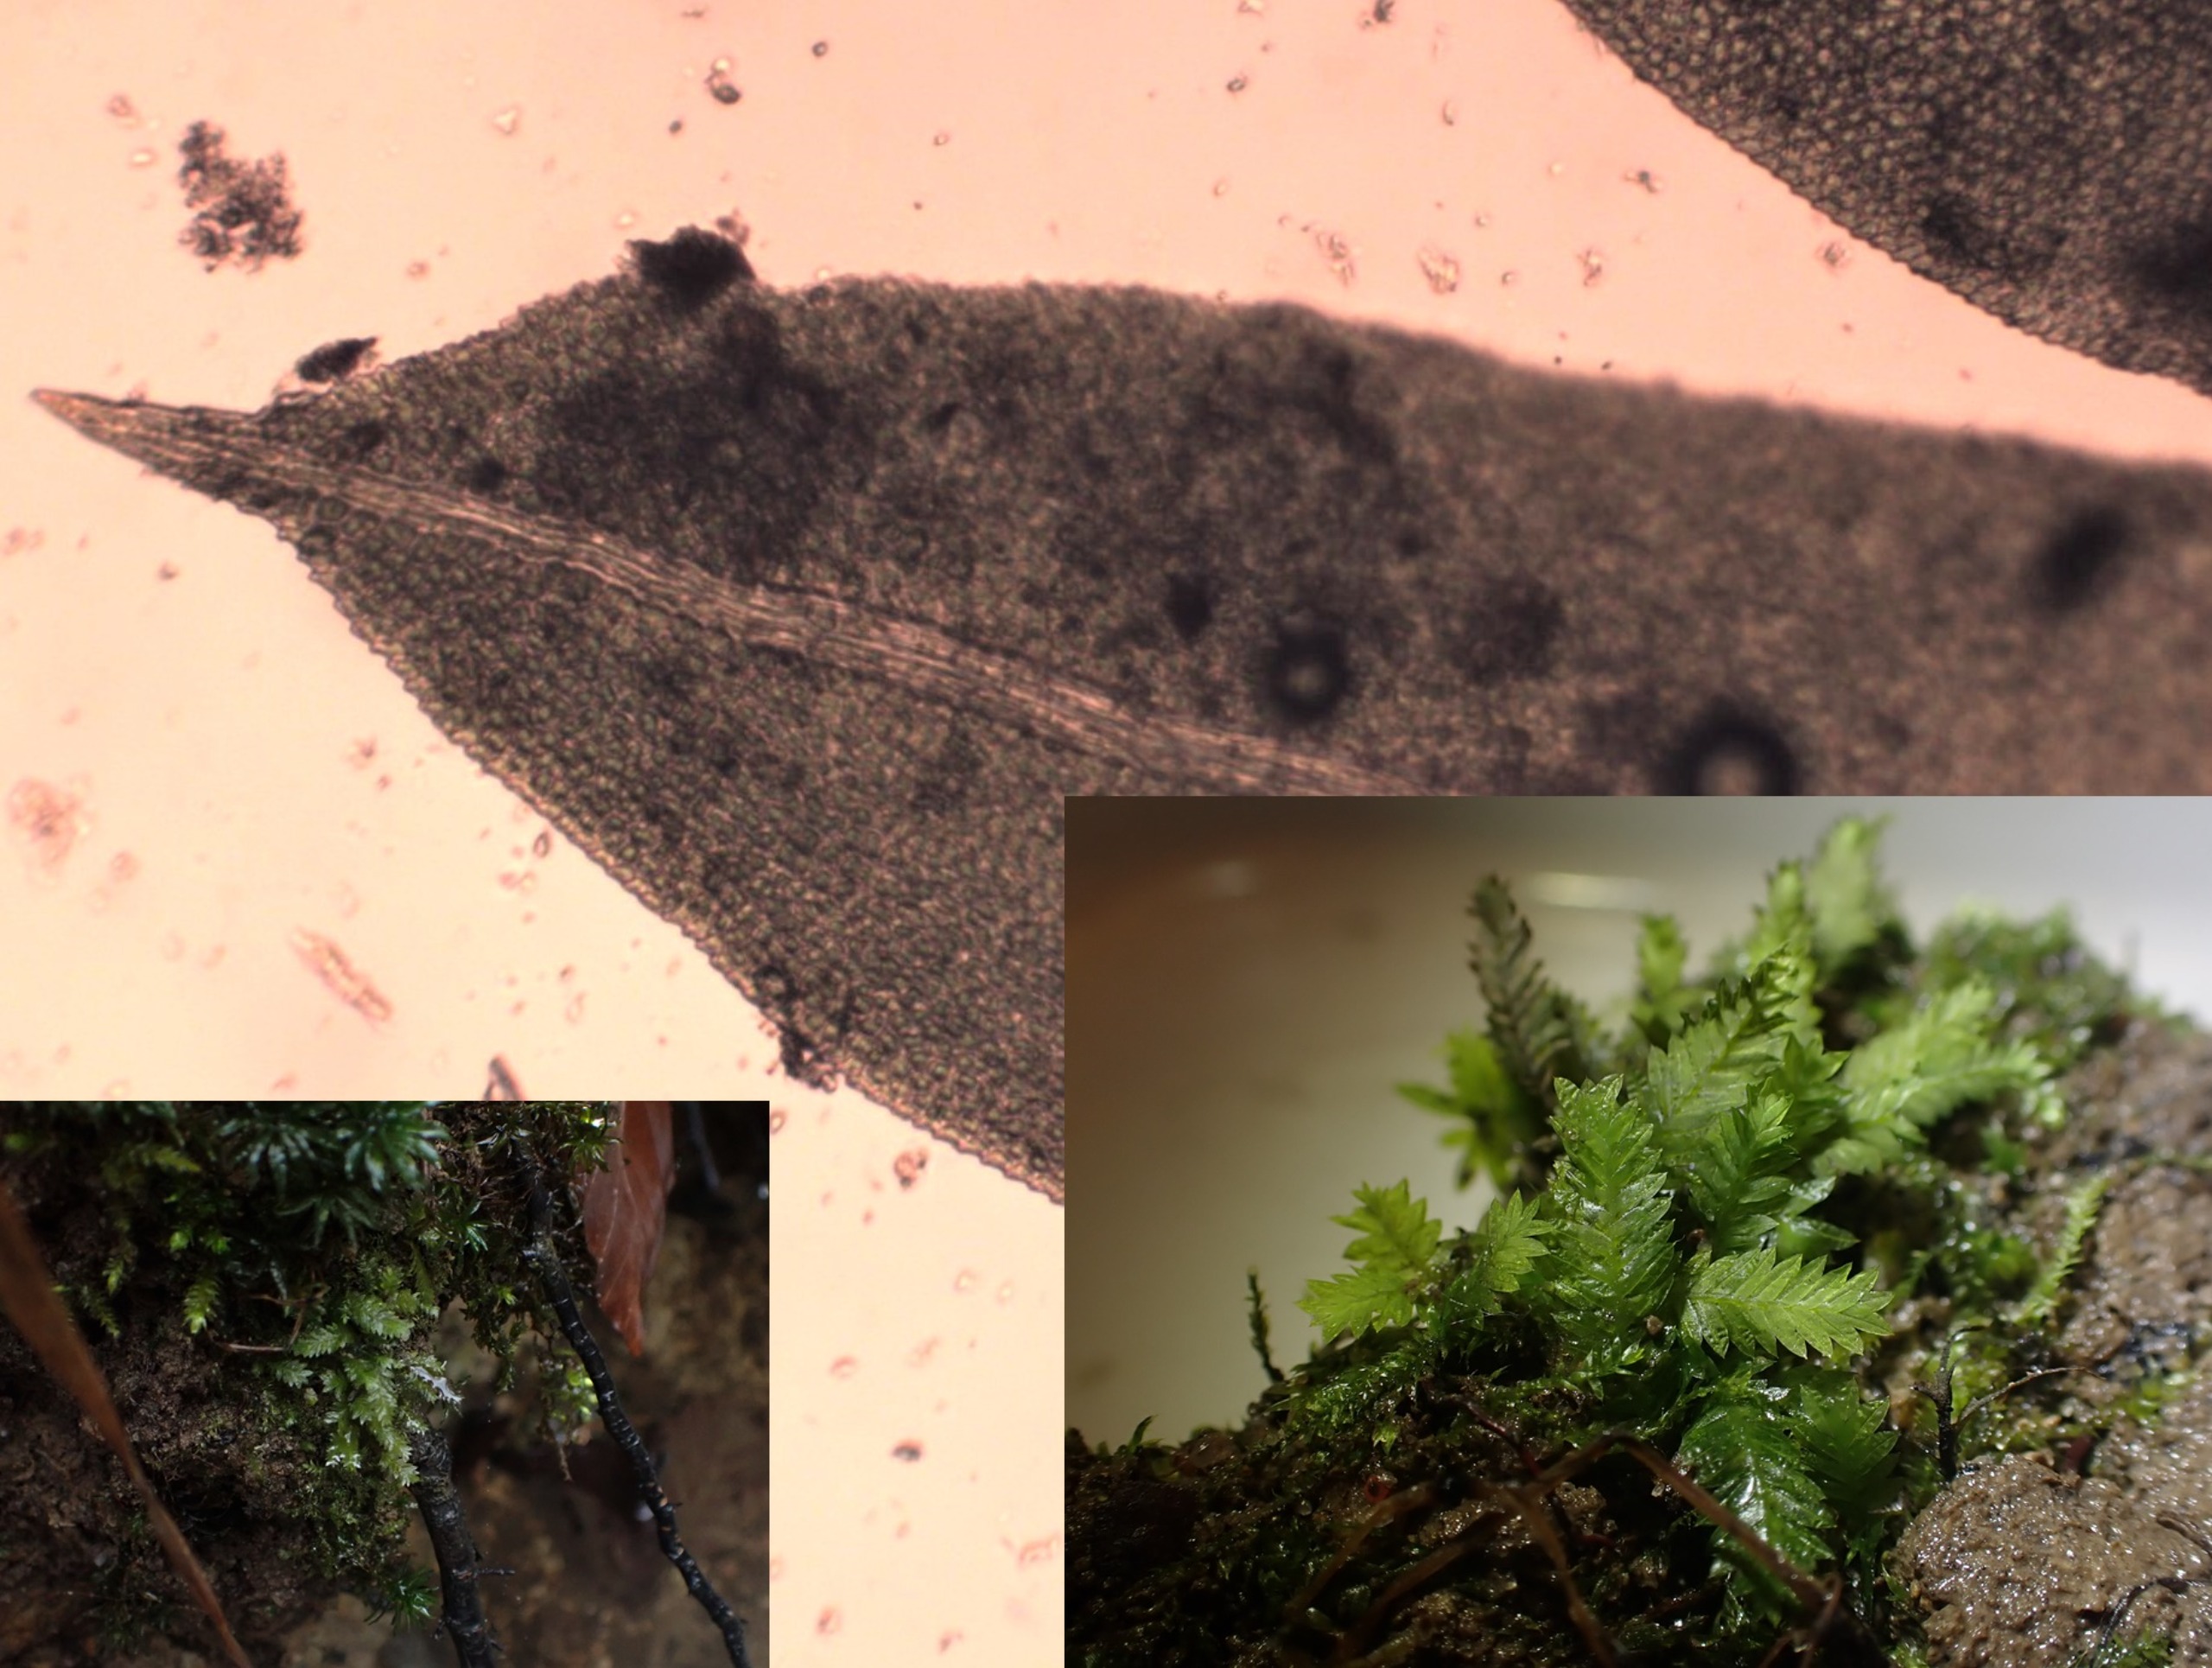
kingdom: Plantae
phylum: Bryophyta
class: Bryopsida
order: Dicranales
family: Fissidentaceae
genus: Fissidens
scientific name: Fissidens taxifolius
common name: Taksbladet rademos
